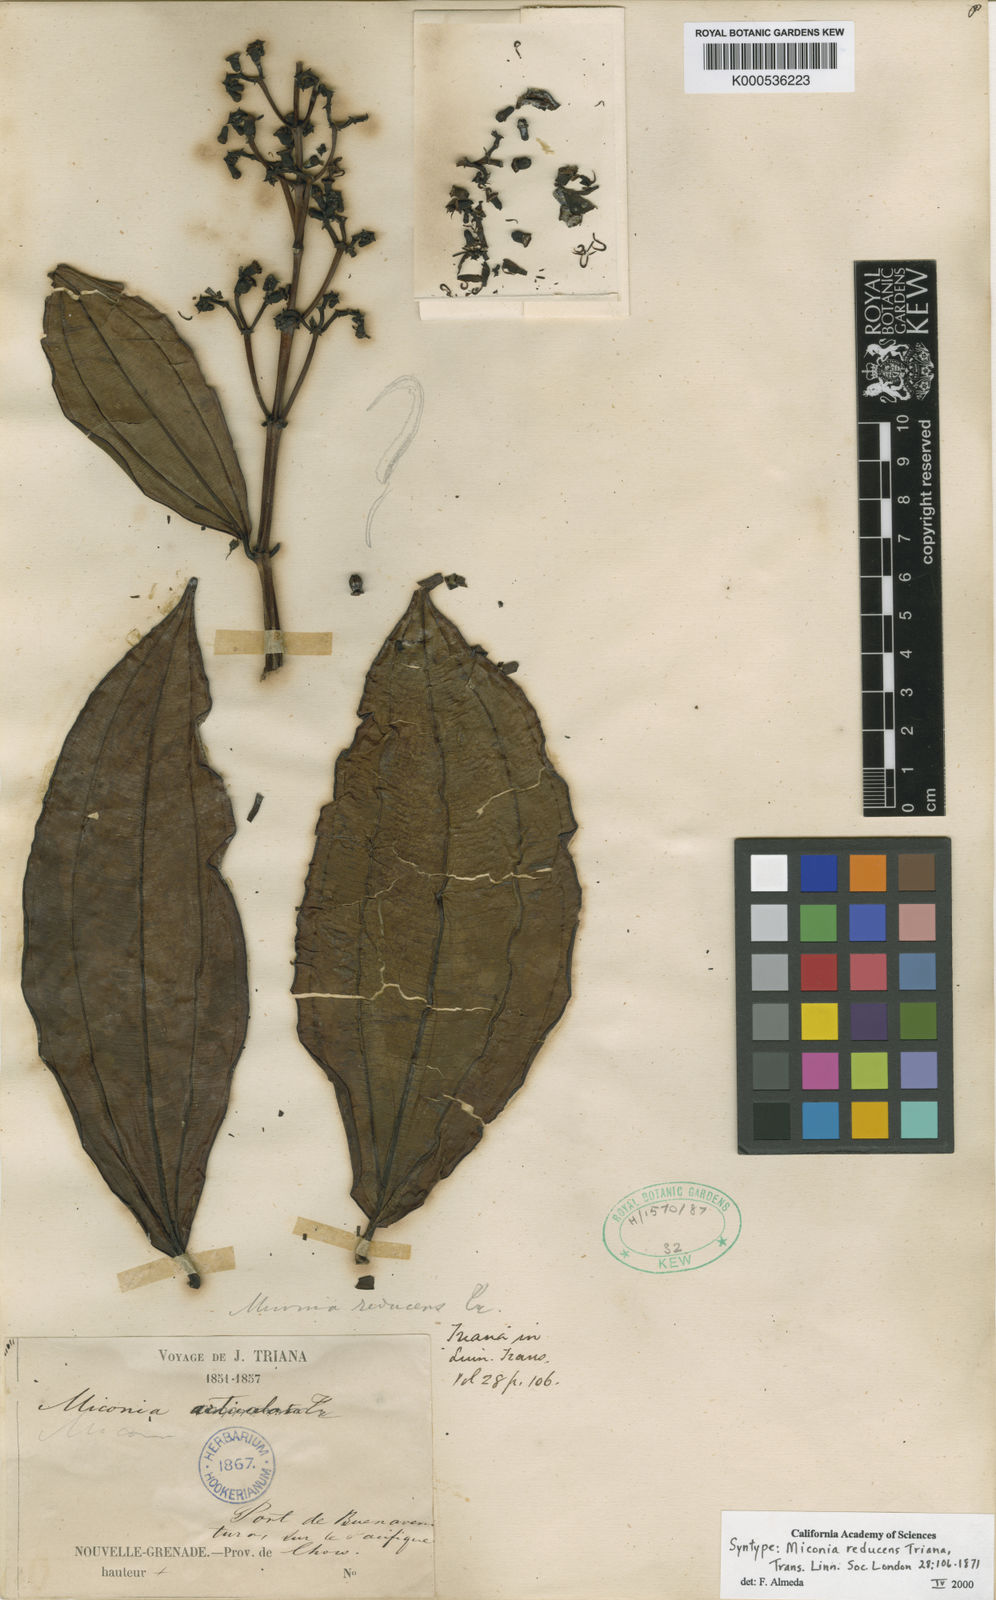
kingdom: Plantae
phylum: Tracheophyta
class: Magnoliopsida
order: Myrtales
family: Melastomataceae
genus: Miconia
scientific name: Miconia reducens
